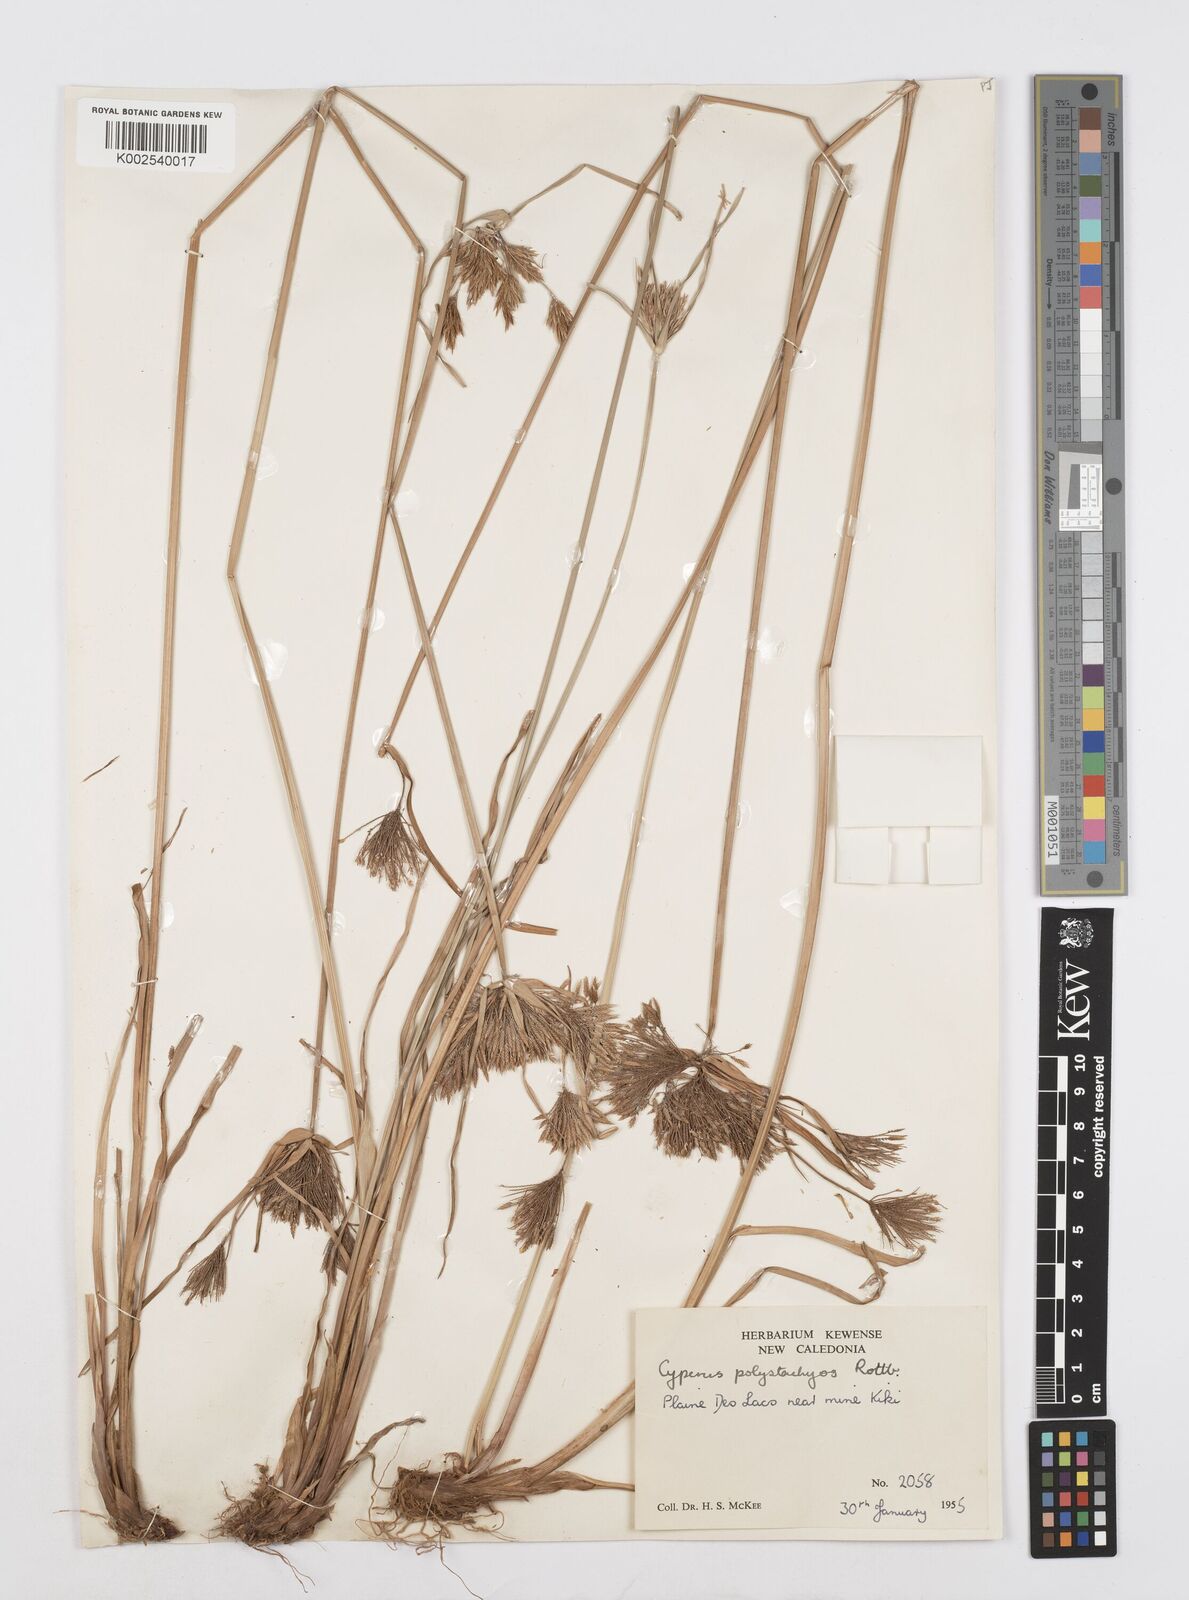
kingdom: Plantae
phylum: Tracheophyta
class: Liliopsida
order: Poales
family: Cyperaceae
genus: Cyperus
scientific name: Cyperus polystachyos
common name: Bunchy flat sedge
